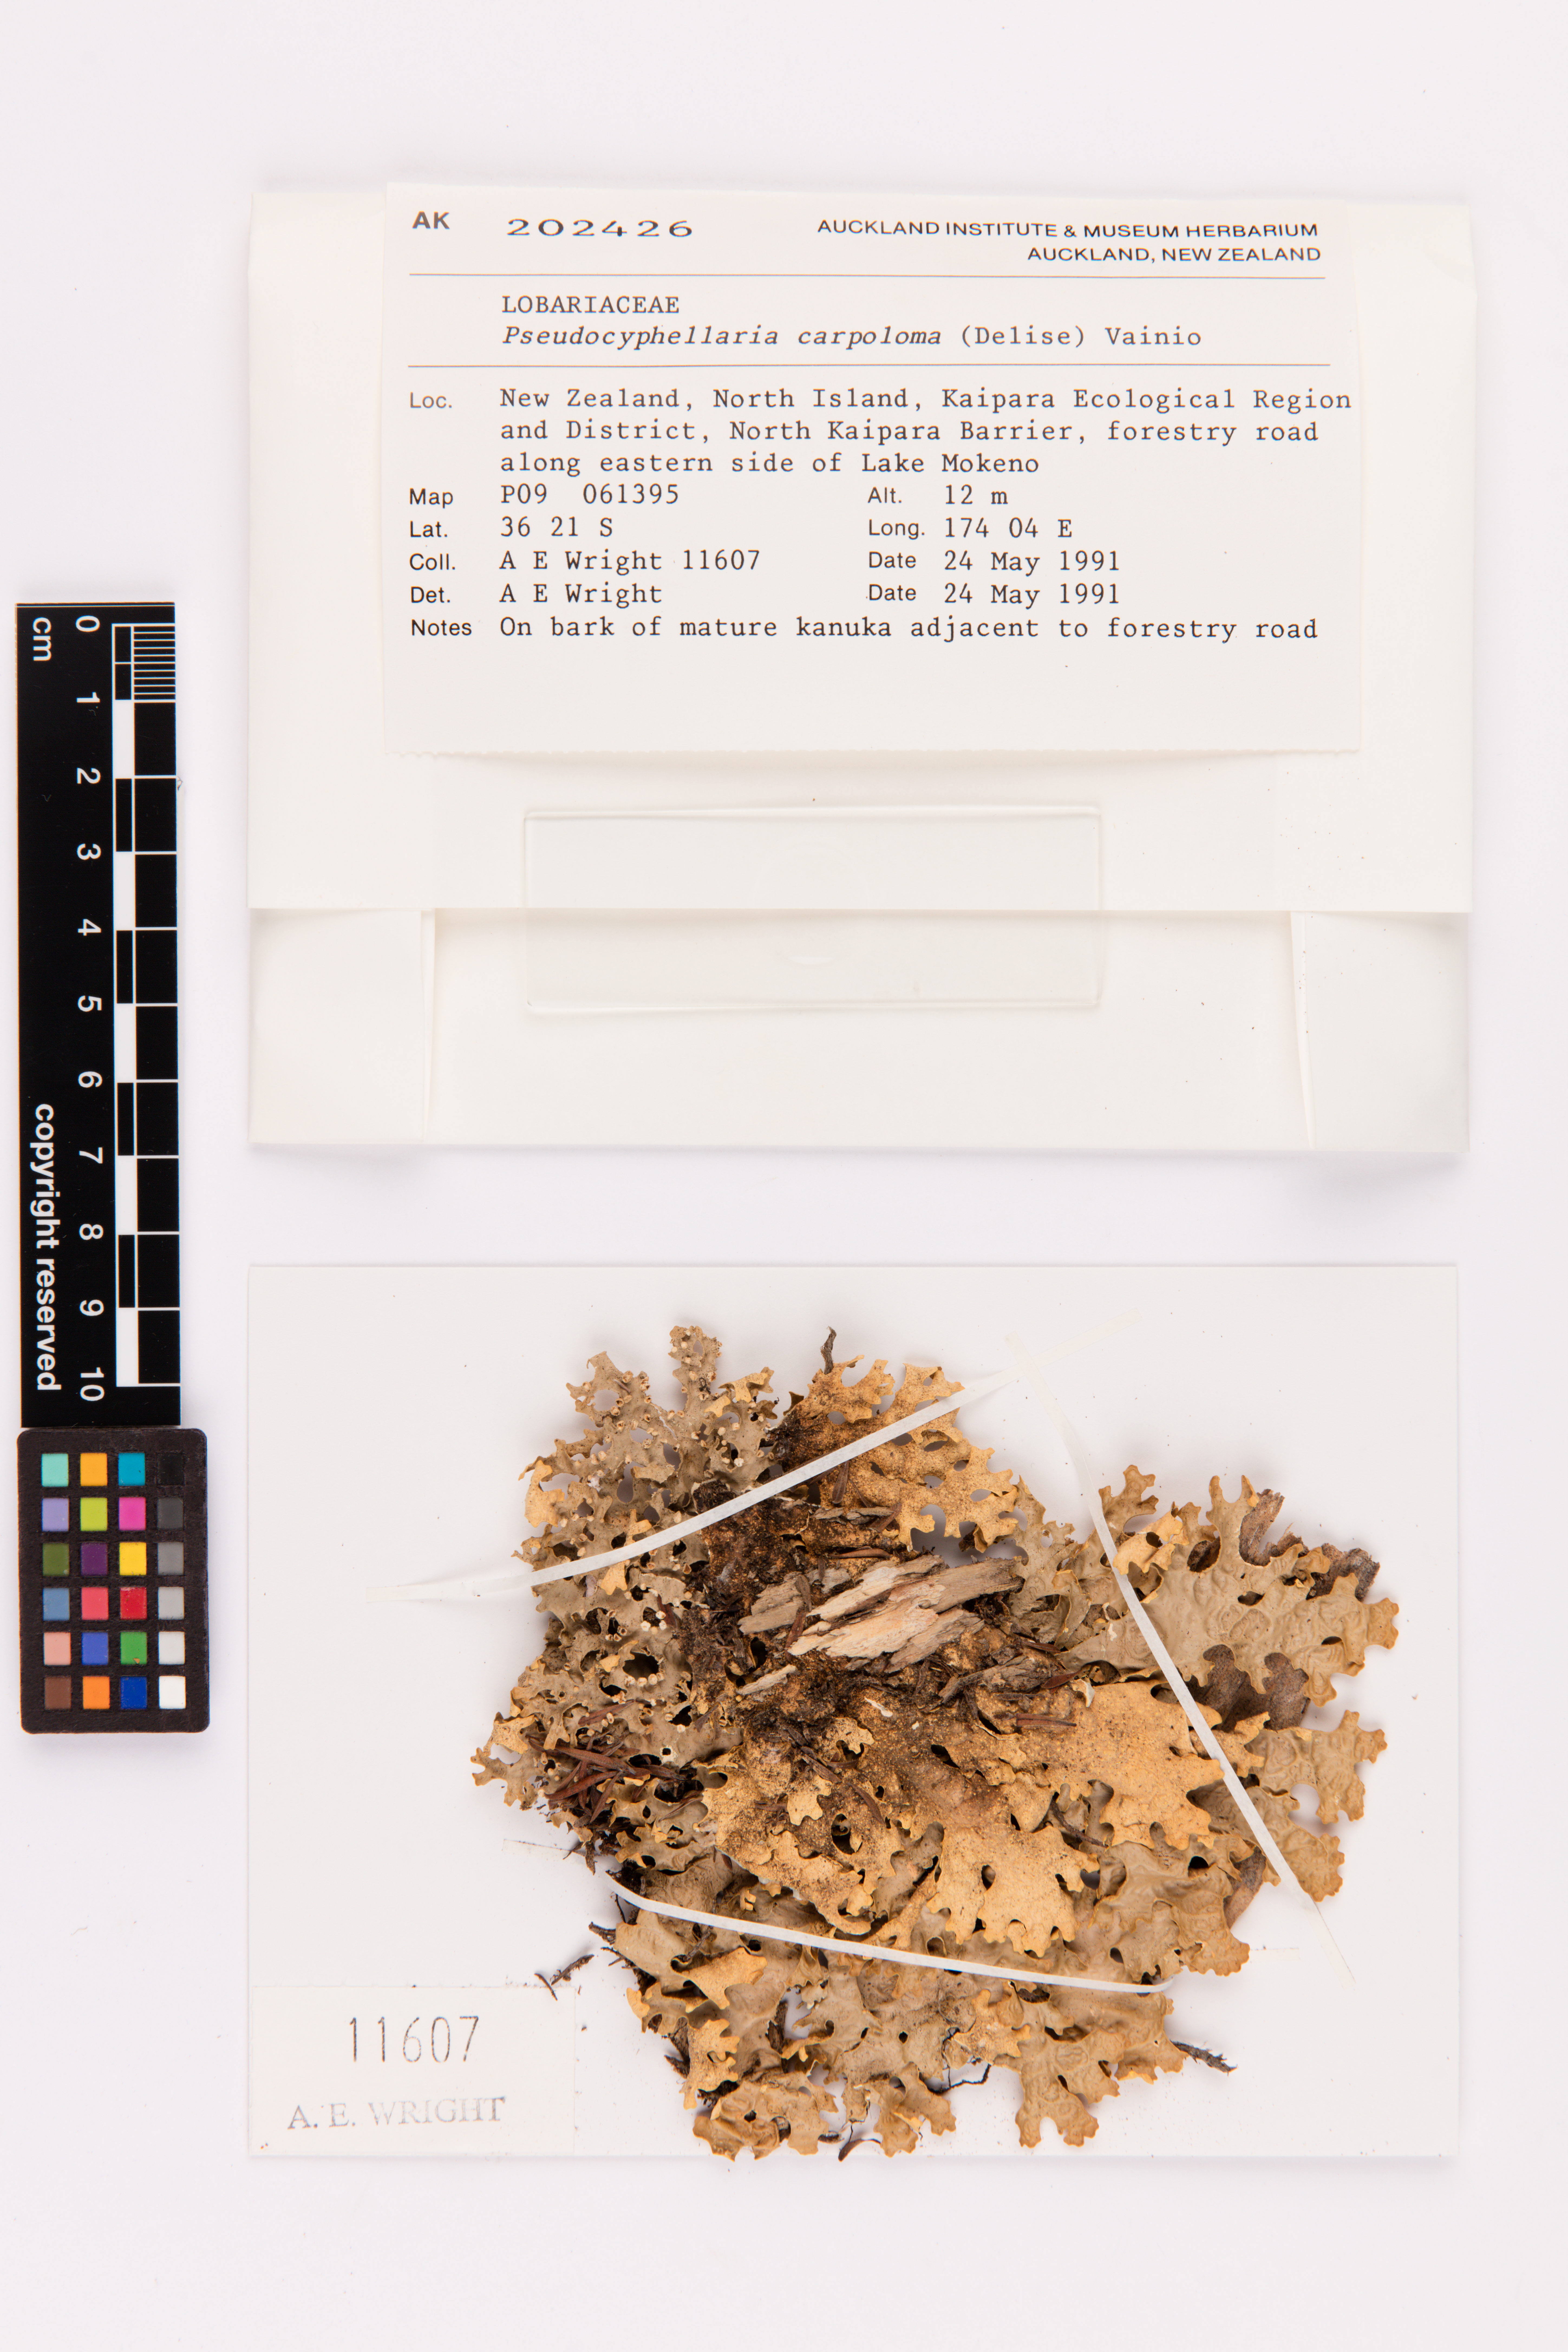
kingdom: Fungi
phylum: Ascomycota
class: Lecanoromycetes
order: Peltigerales
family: Lobariaceae
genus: Pseudocyphellaria
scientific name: Pseudocyphellaria carpoloma
